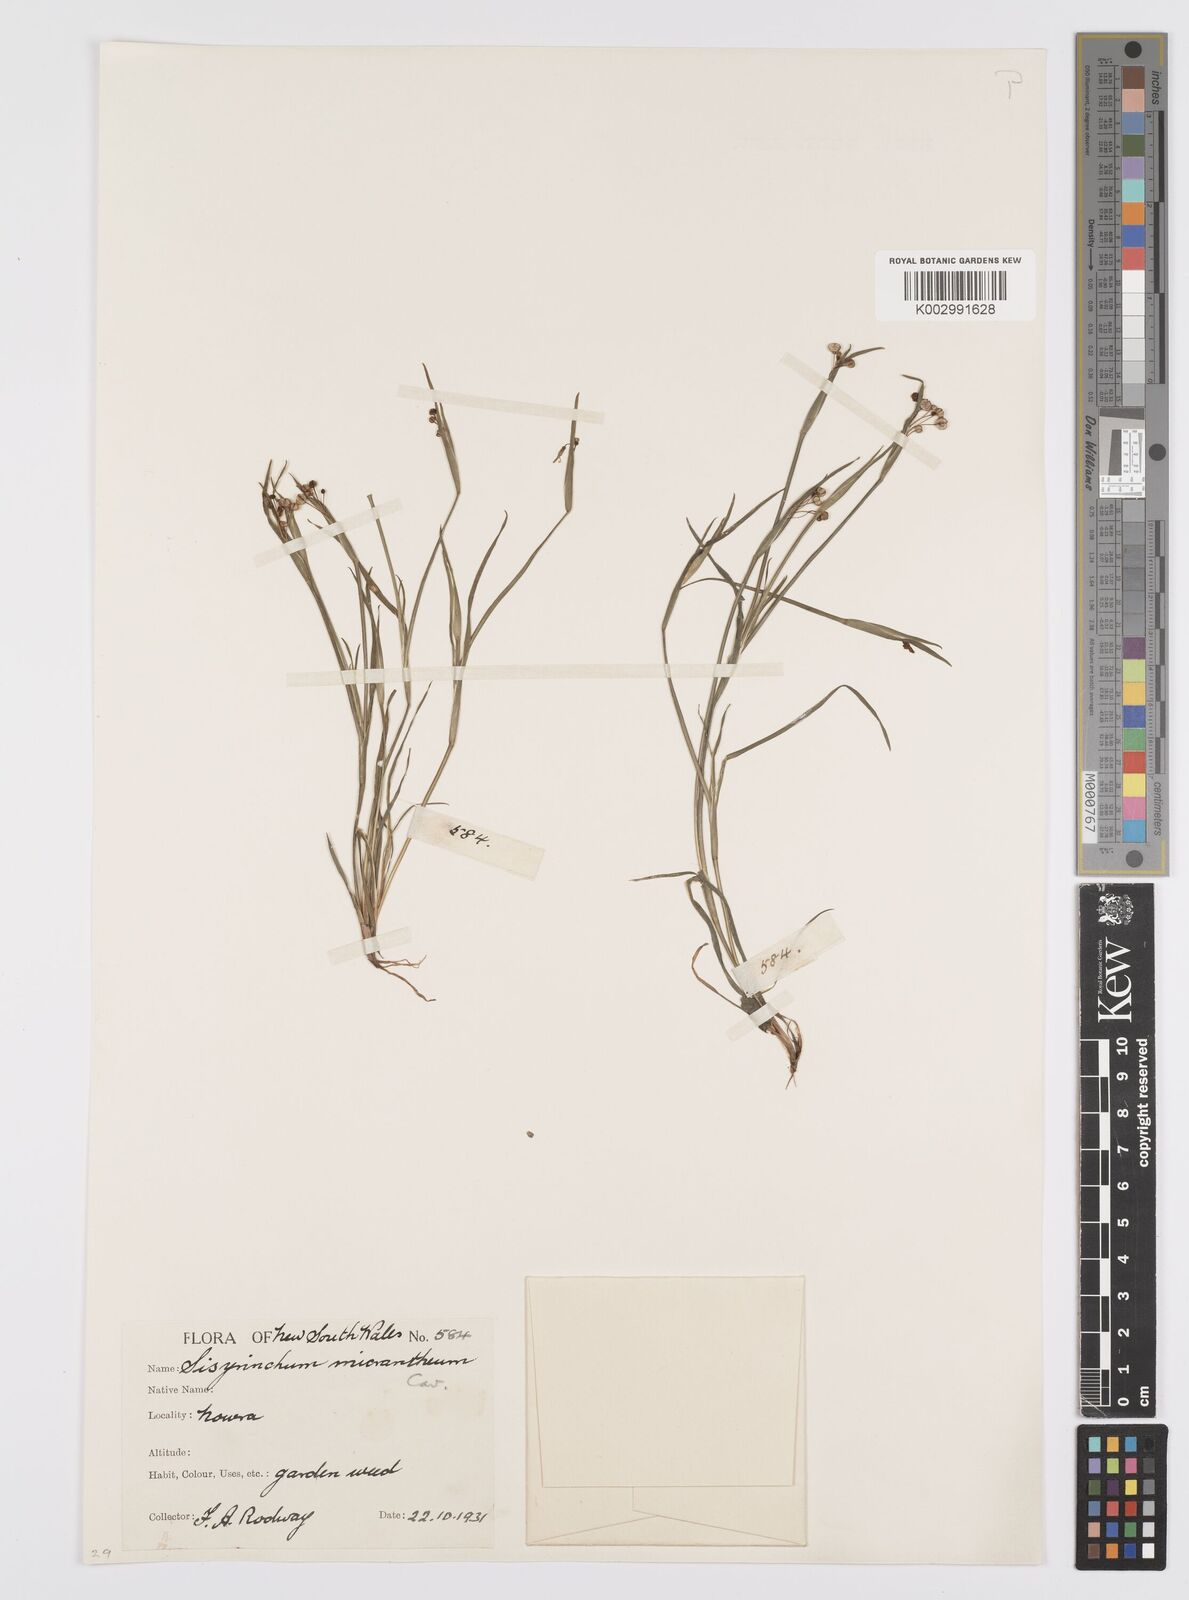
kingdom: Plantae
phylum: Tracheophyta
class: Liliopsida
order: Asparagales
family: Iridaceae
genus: Sisyrinchium
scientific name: Sisyrinchium micranthum
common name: Bermuda pigroot
